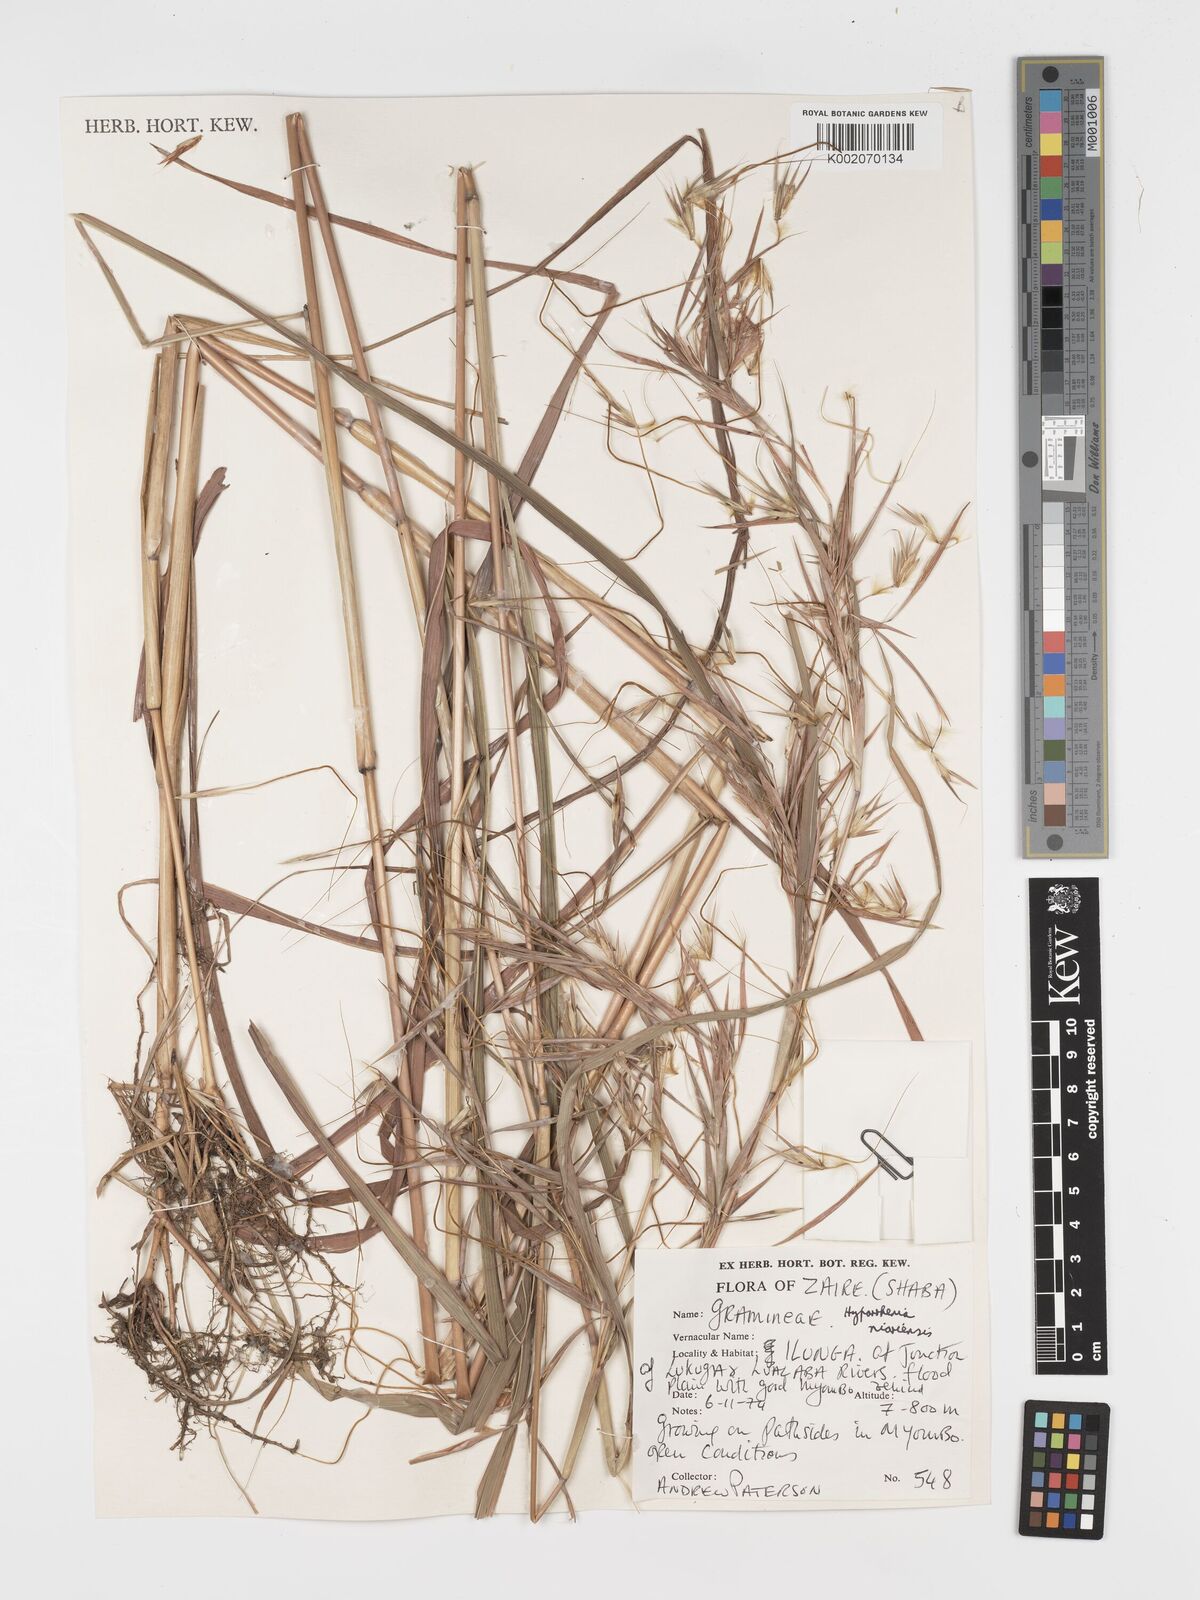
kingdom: Plantae
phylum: Tracheophyta
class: Liliopsida
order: Poales
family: Poaceae
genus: Hyparrhenia
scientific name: Hyparrhenia niariensis
